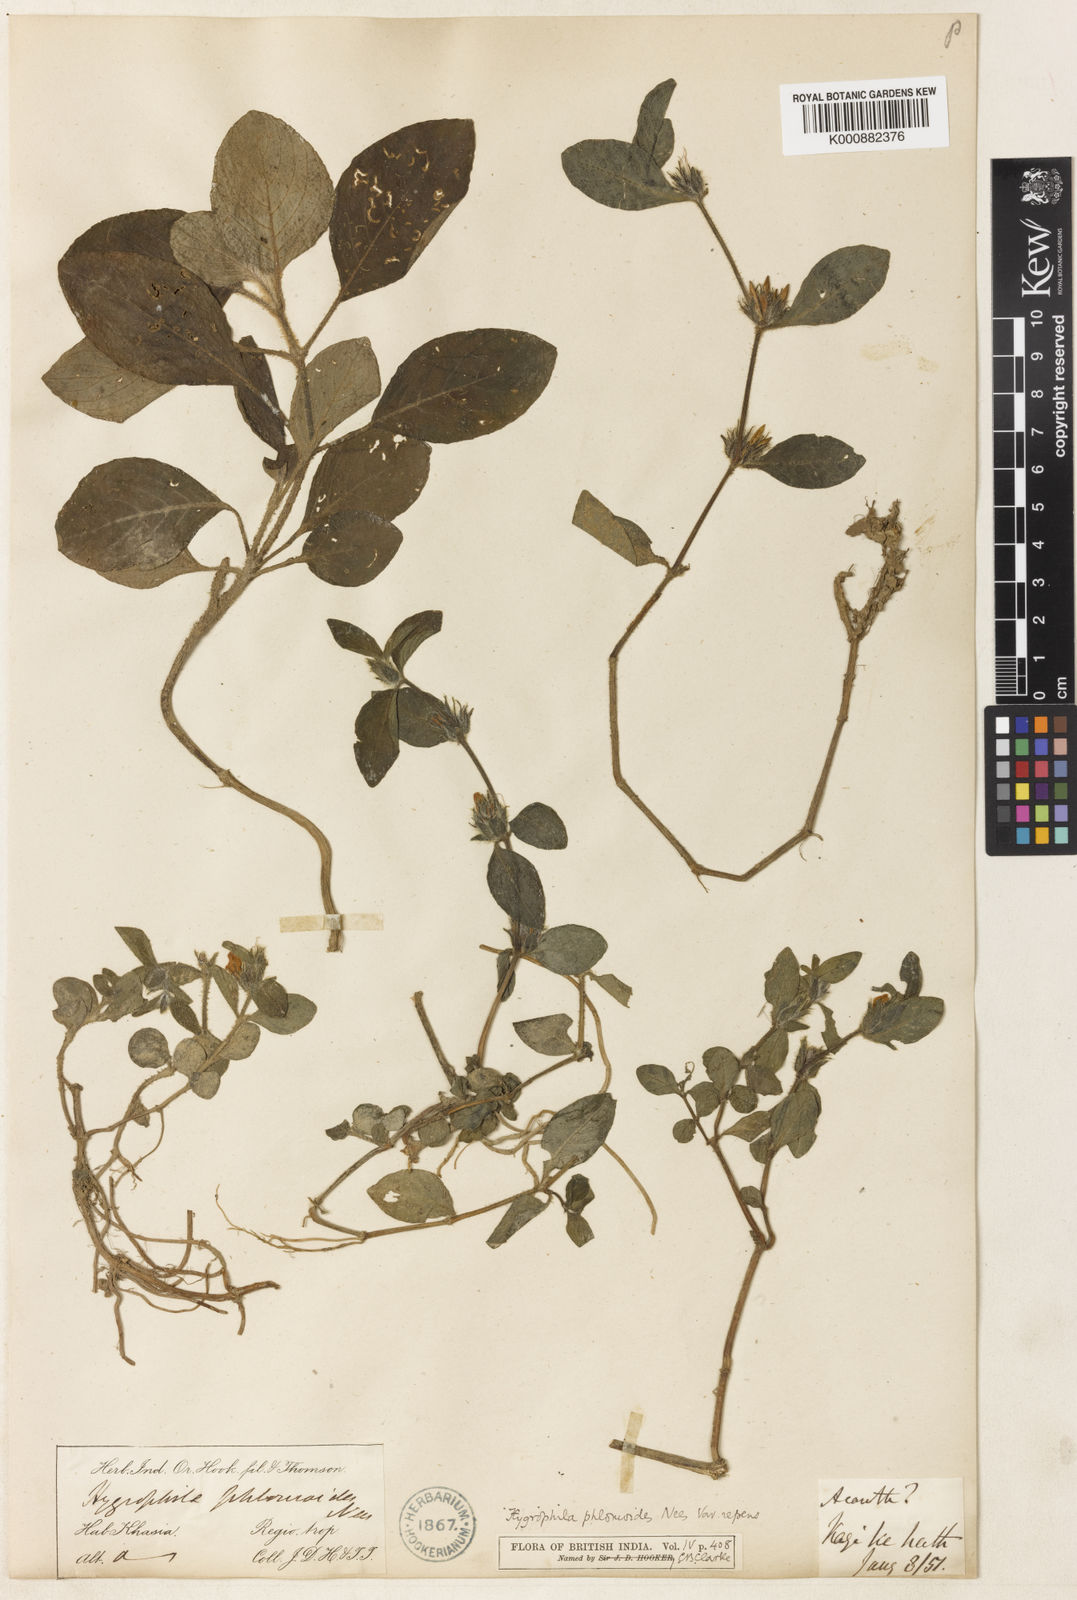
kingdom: Plantae
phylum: Tracheophyta
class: Magnoliopsida
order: Lamiales
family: Acanthaceae
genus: Hygrophila
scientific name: Hygrophila phlomoides
